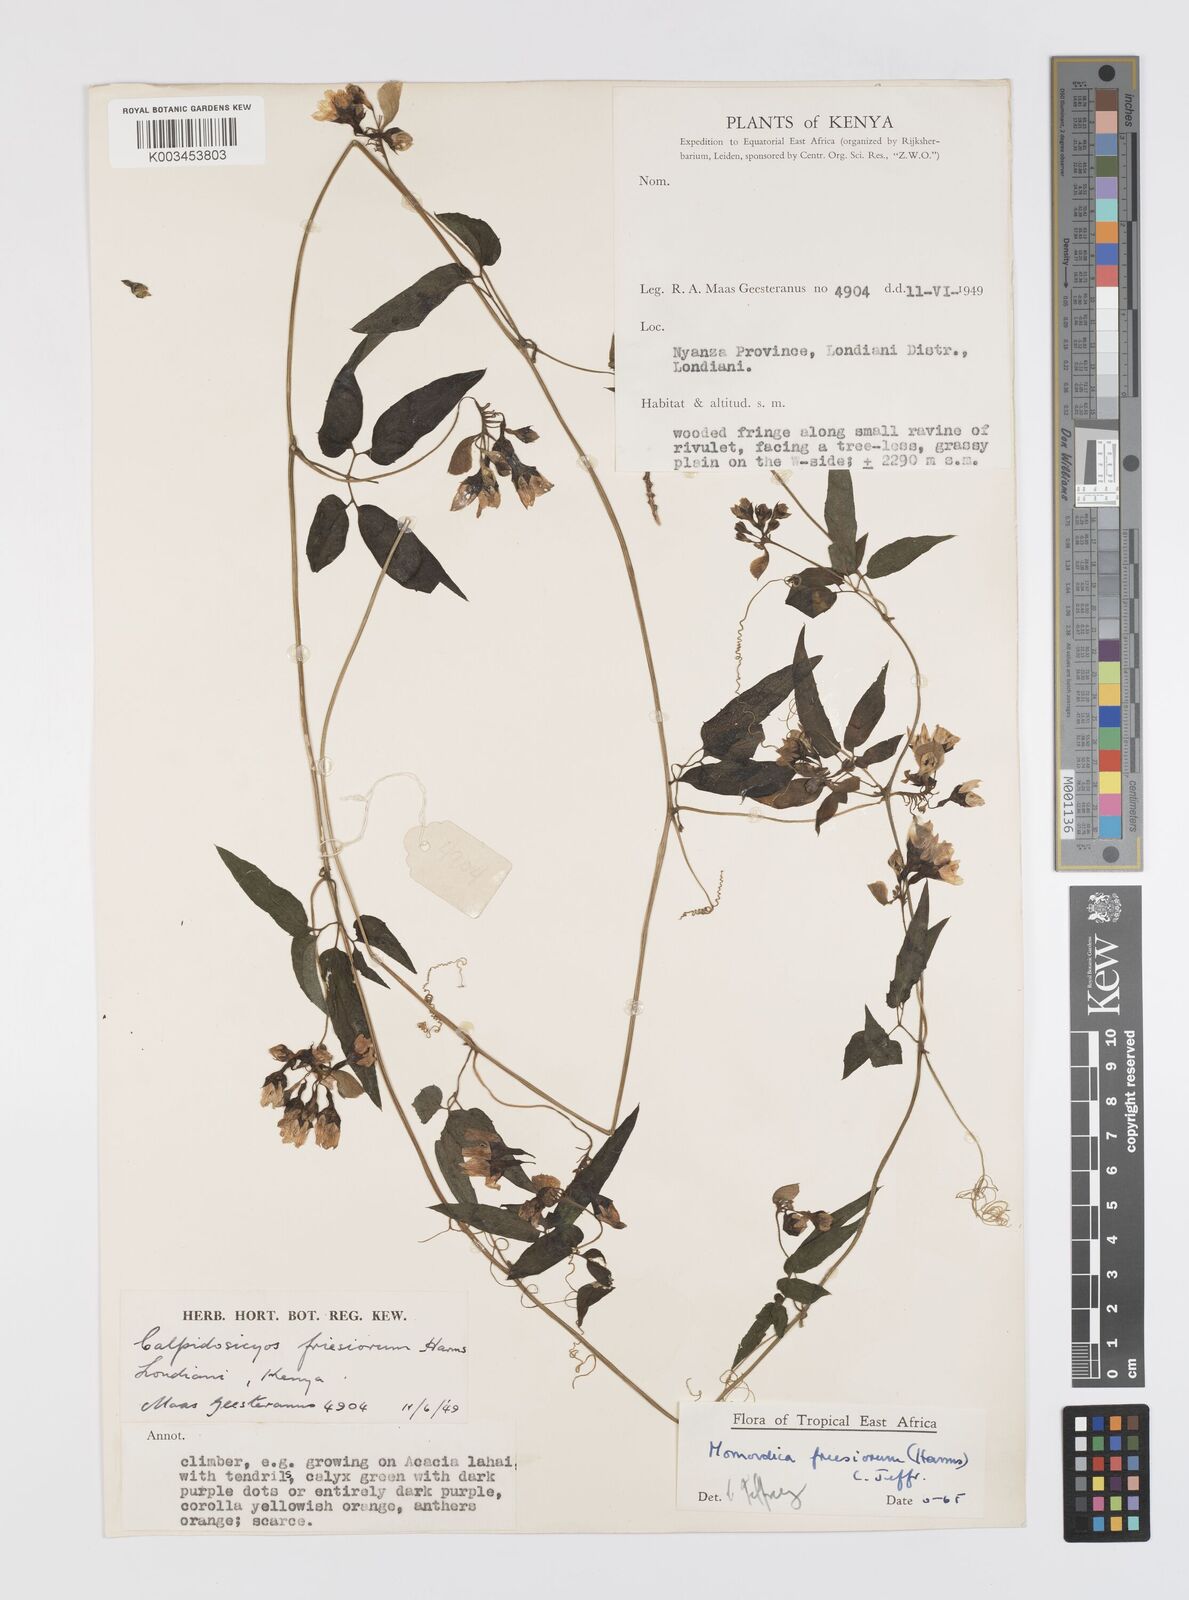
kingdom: Plantae
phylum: Tracheophyta
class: Magnoliopsida
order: Cucurbitales
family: Cucurbitaceae
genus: Momordica
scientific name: Momordica friesiorum
